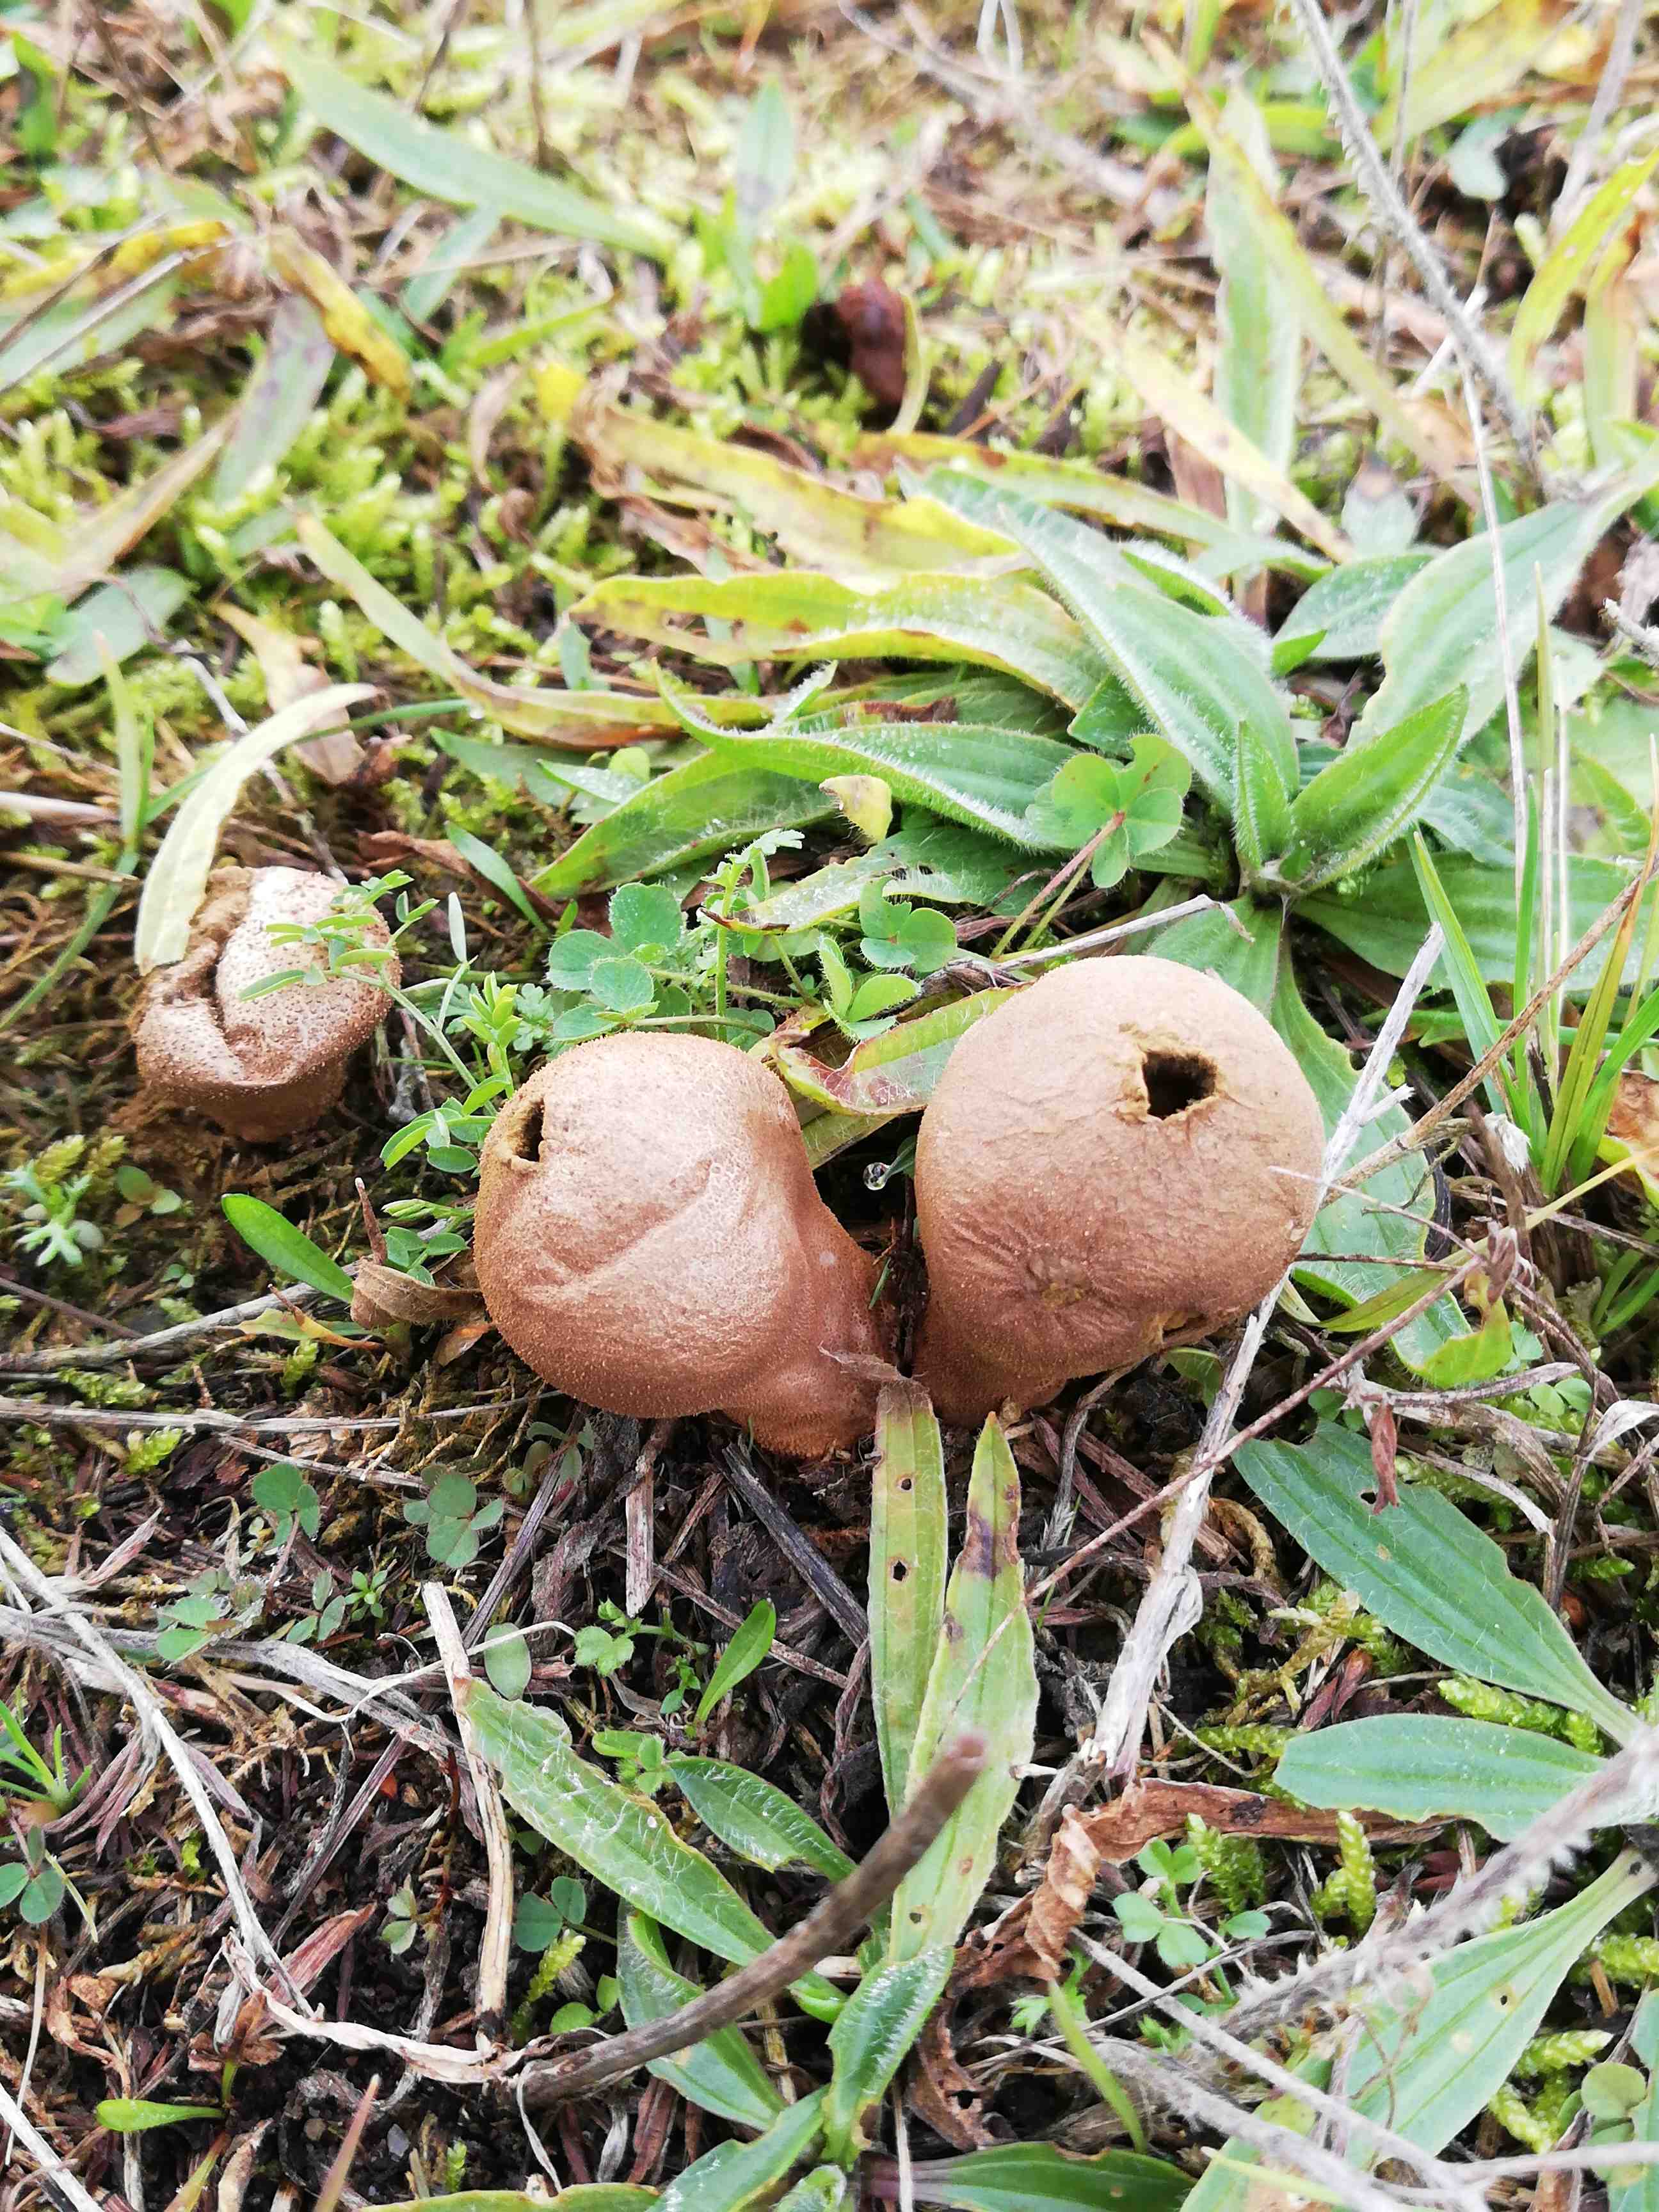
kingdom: Fungi
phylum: Basidiomycota
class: Agaricomycetes
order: Agaricales
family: Lycoperdaceae
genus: Lycoperdon
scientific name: Lycoperdon lividum
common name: mark-støvbold
